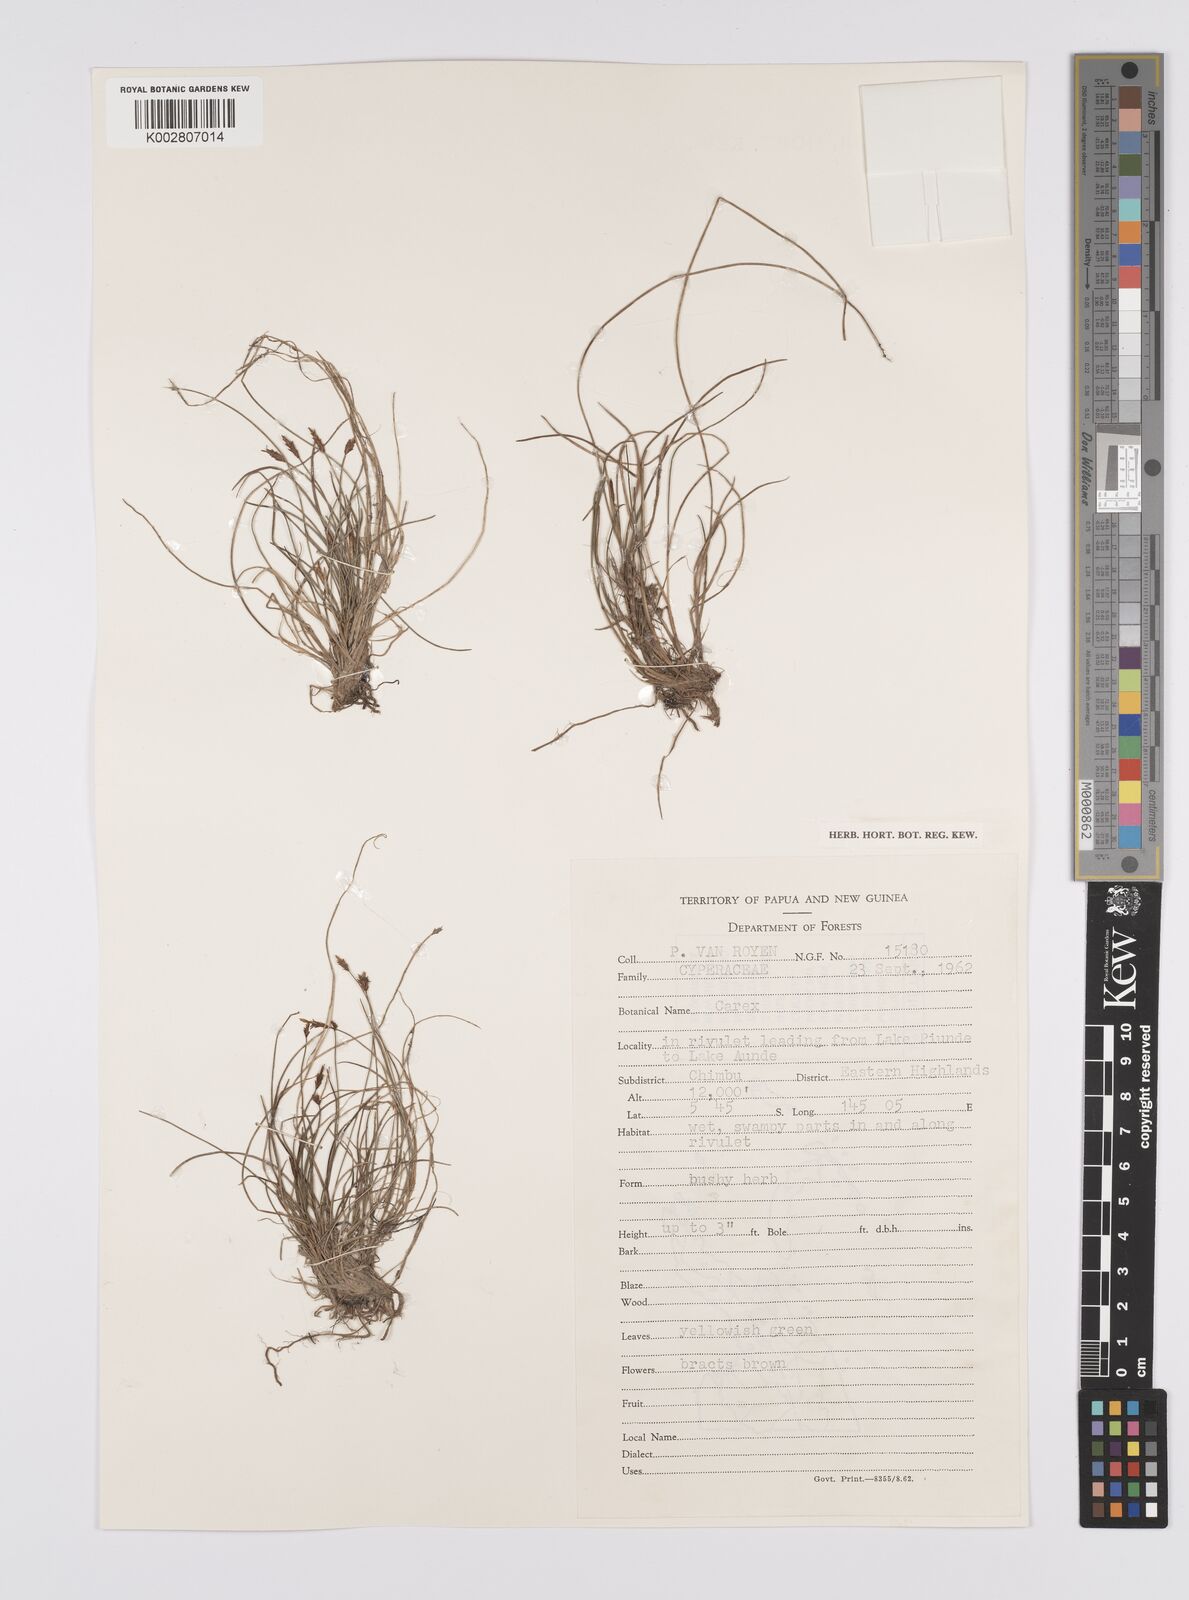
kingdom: Plantae
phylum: Tracheophyta
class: Liliopsida
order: Poales
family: Cyperaceae
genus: Carex
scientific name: Carex capillacea
